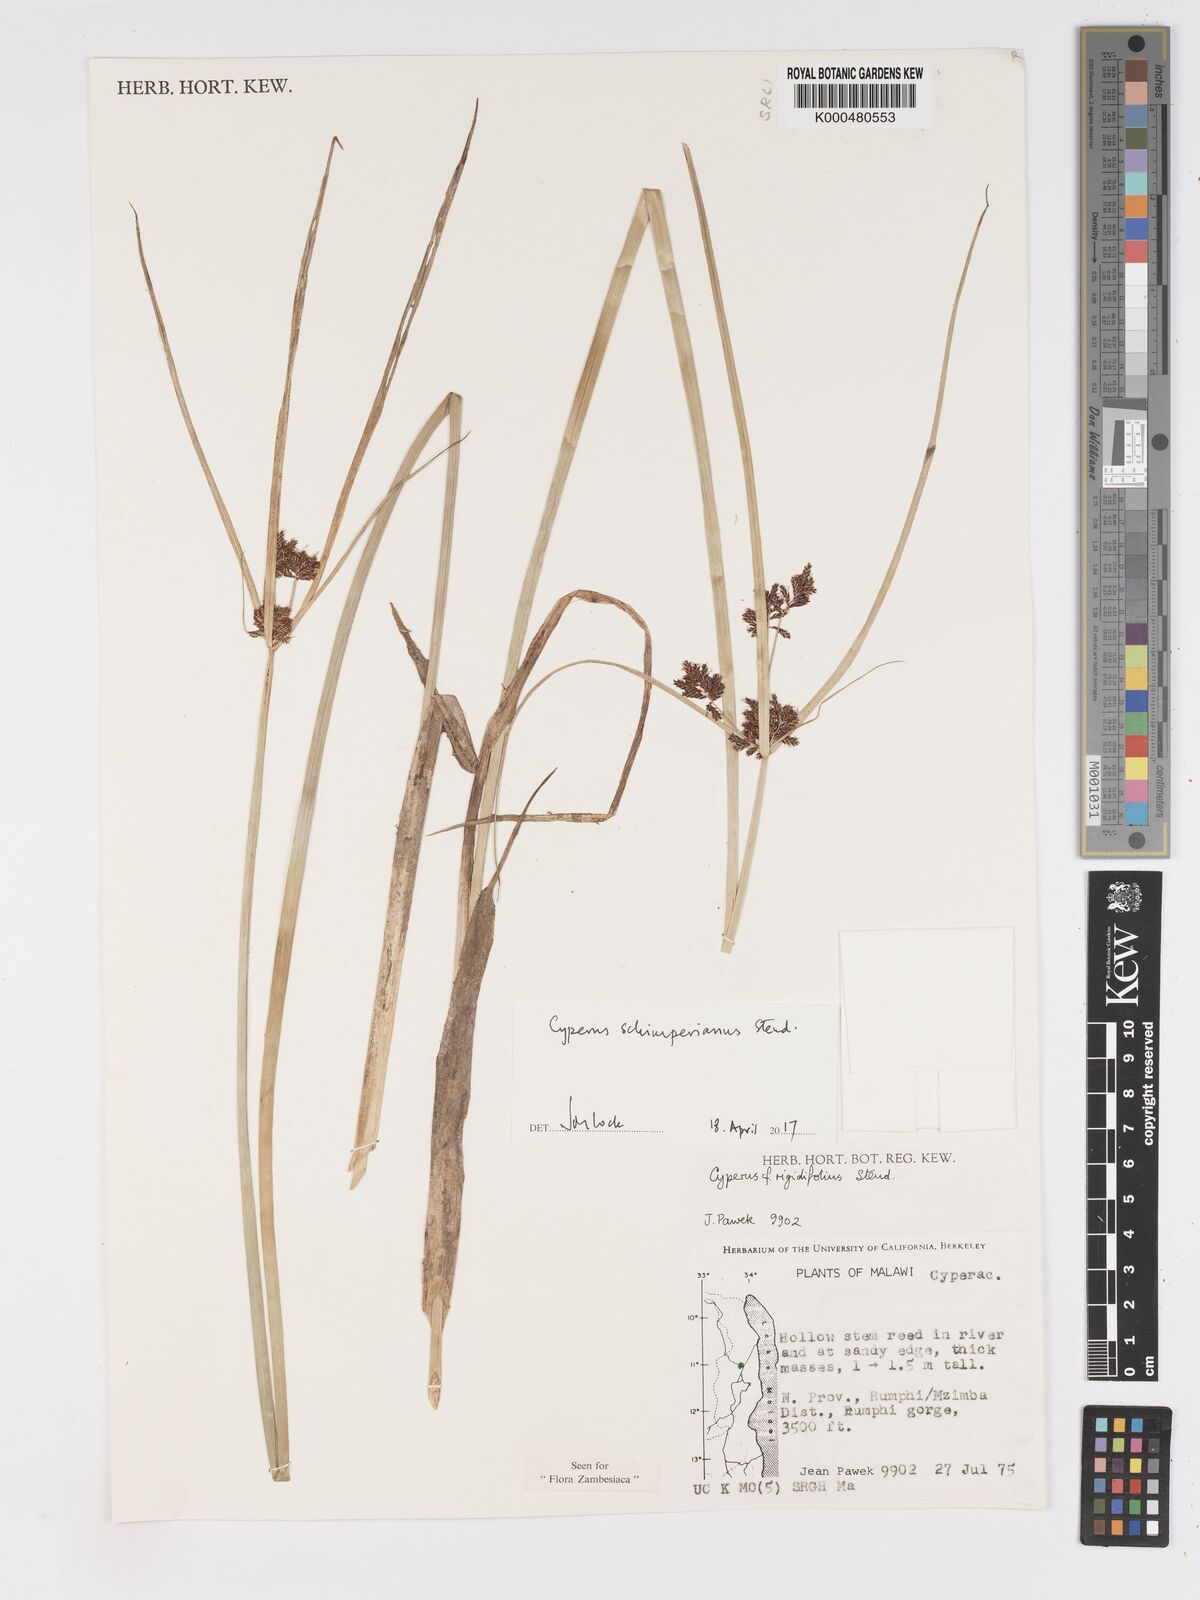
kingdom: Plantae
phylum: Tracheophyta
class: Liliopsida
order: Poales
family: Cyperaceae
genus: Cyperus
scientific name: Cyperus rigidifolius
